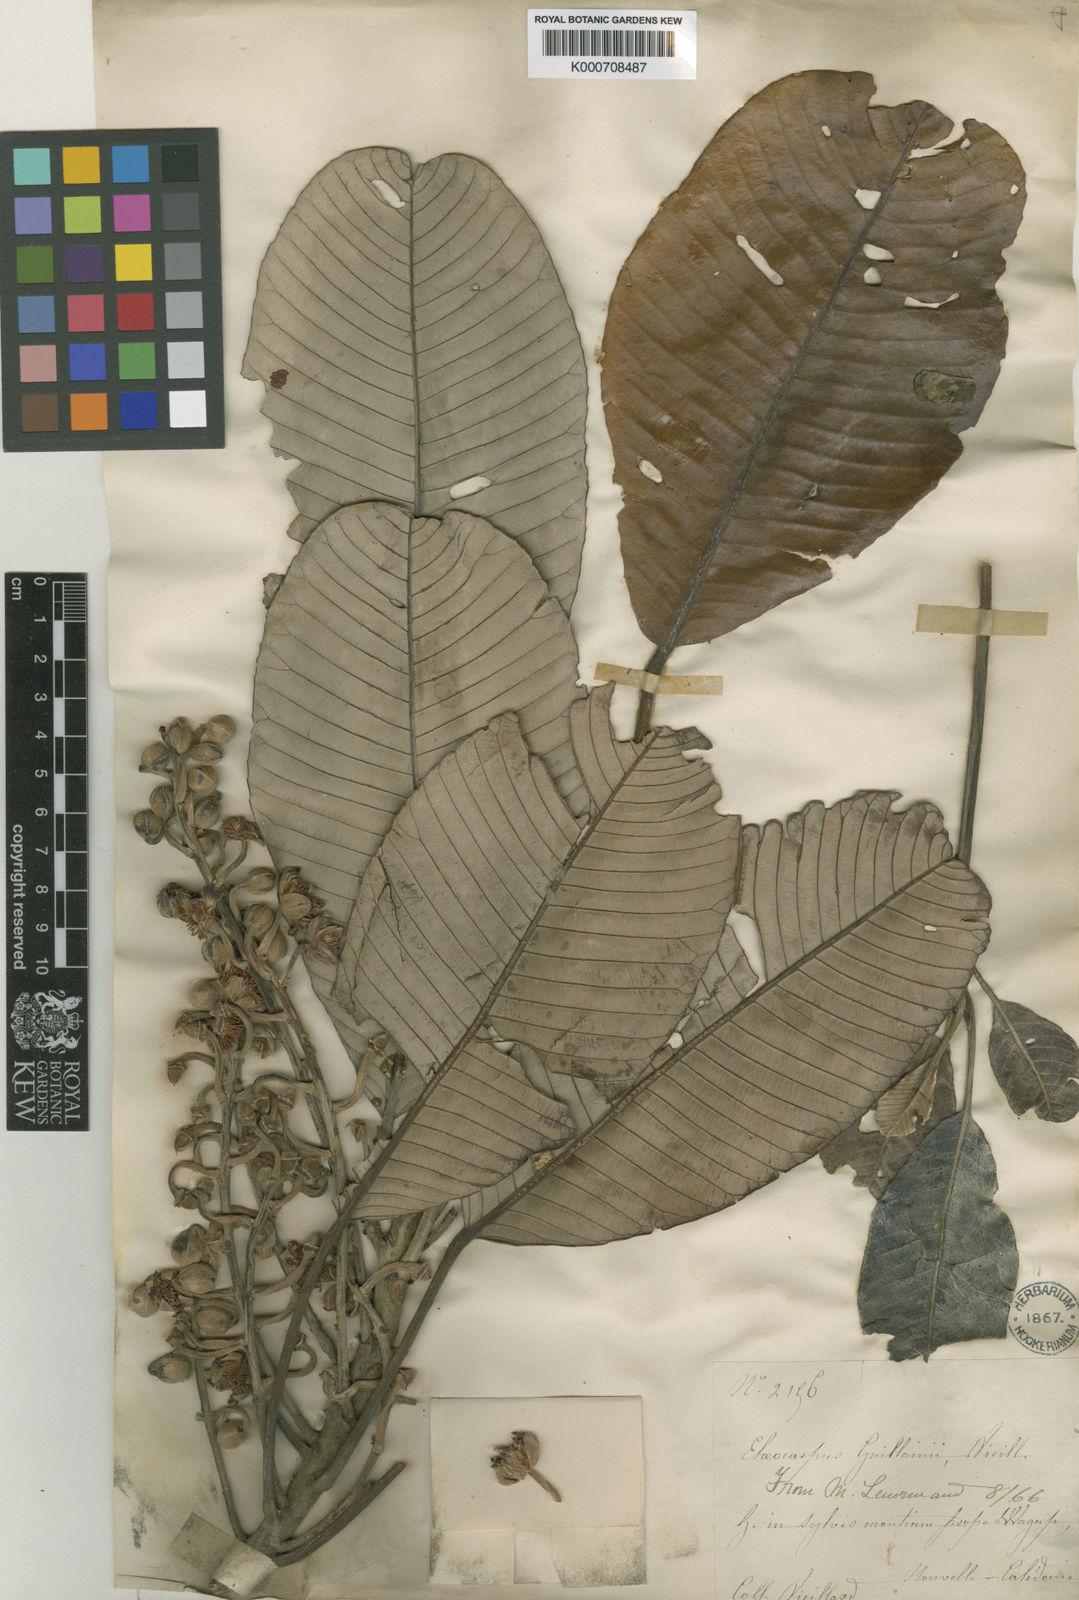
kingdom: Plantae
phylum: Tracheophyta
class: Magnoliopsida
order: Oxalidales
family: Elaeocarpaceae
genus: Elaeocarpus
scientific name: Elaeocarpus guillaumii
